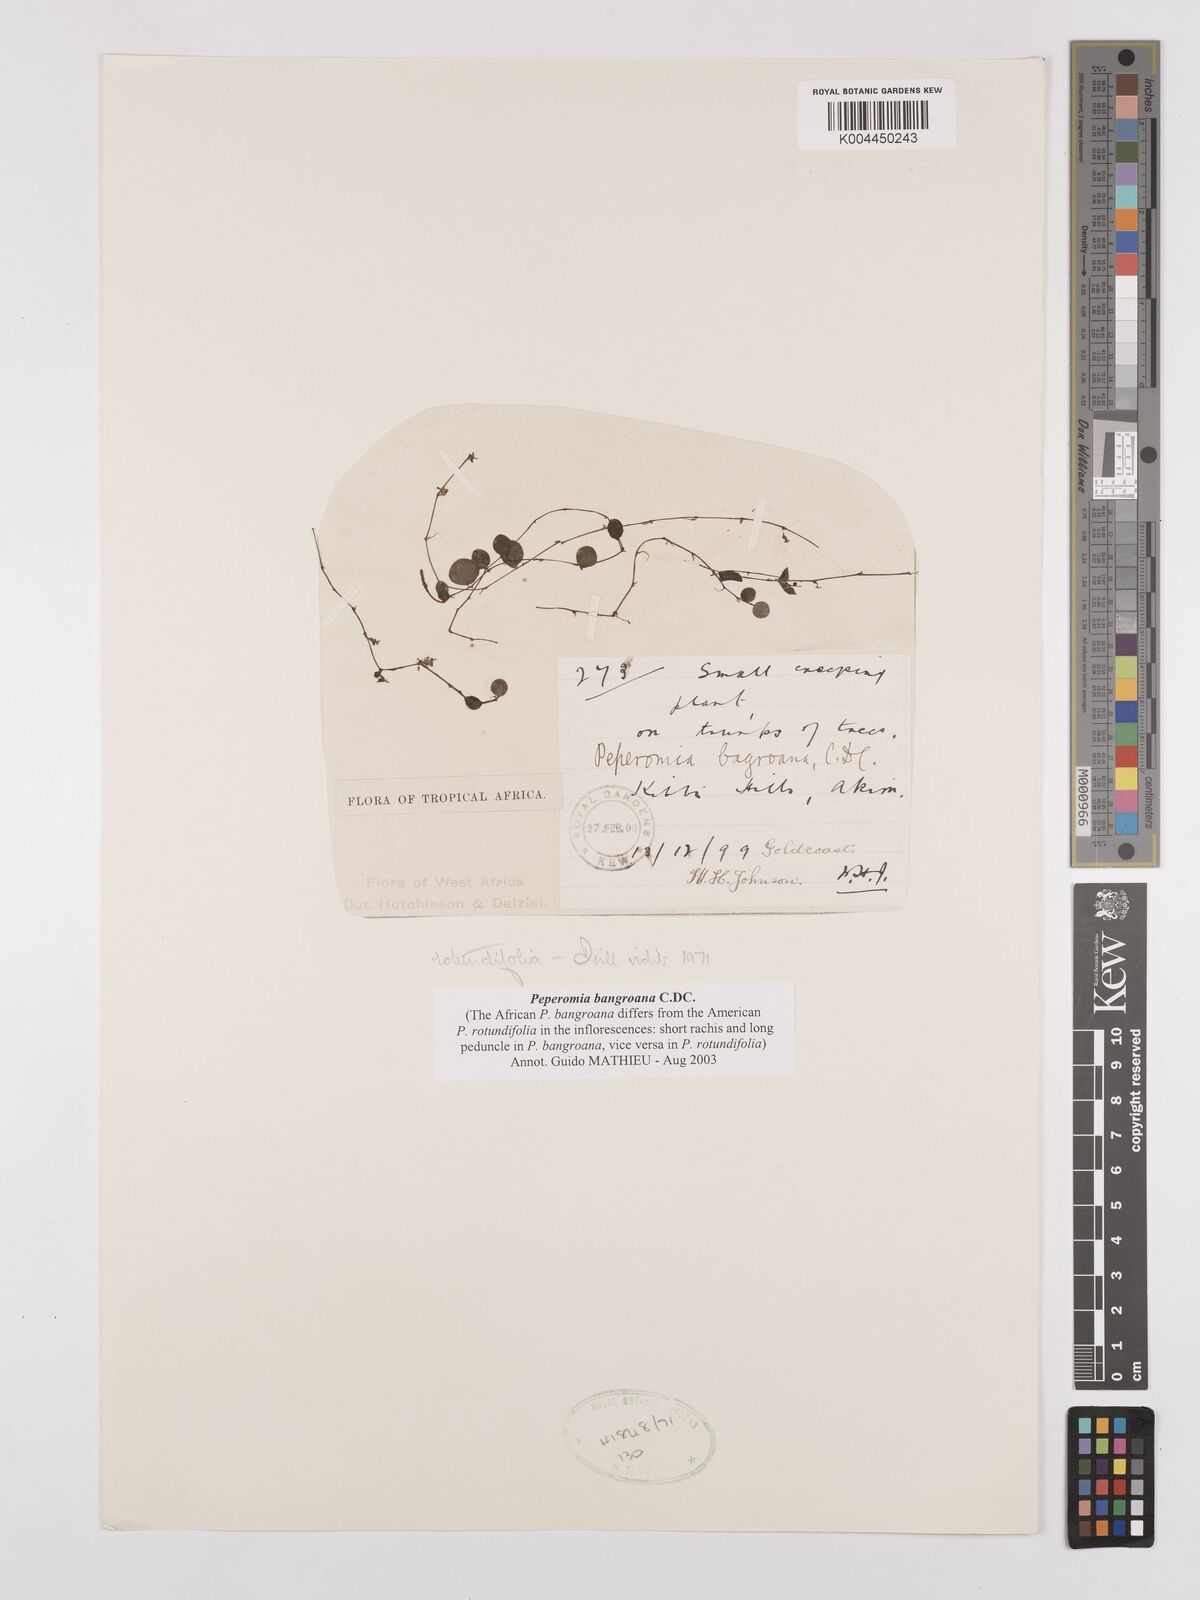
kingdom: Plantae
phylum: Tracheophyta
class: Magnoliopsida
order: Piperales
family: Piperaceae
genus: Peperomia
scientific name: Peperomia bangroana
